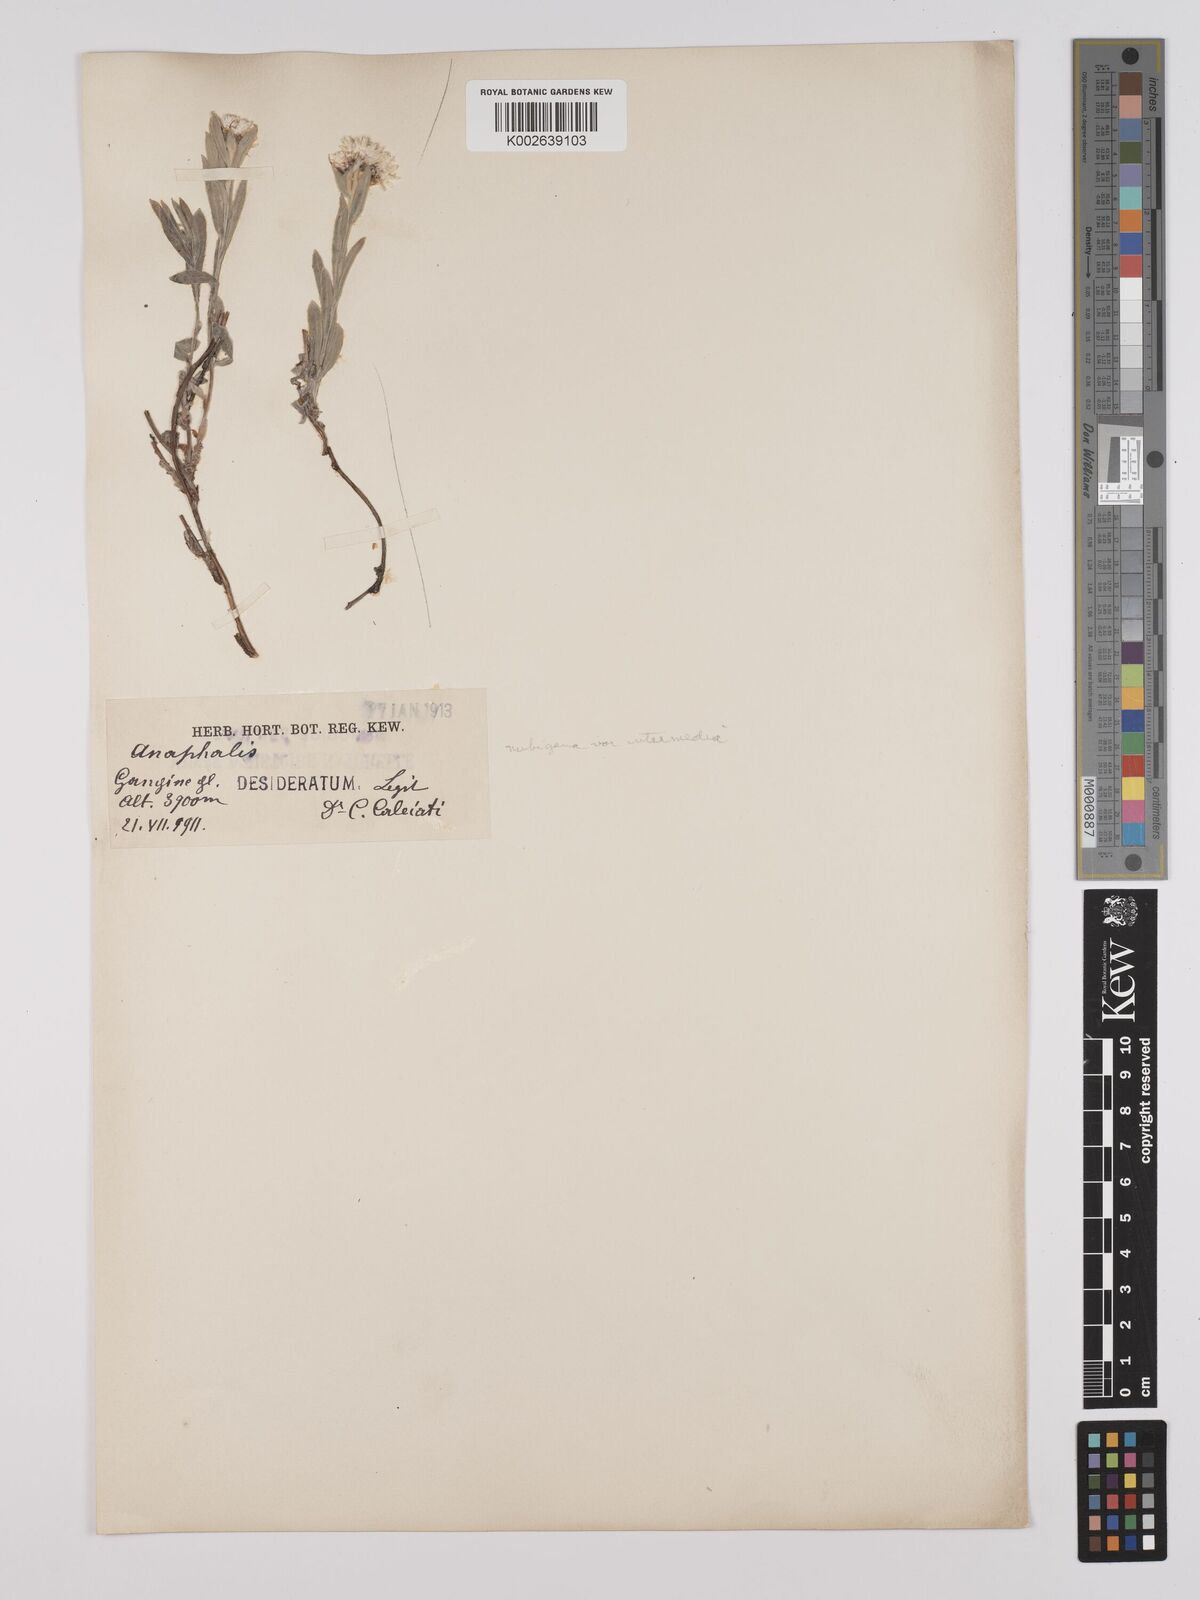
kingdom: Plantae
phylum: Tracheophyta
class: Magnoliopsida
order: Asterales
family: Asteraceae
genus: Anaphalis
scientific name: Anaphalis nepalensis
